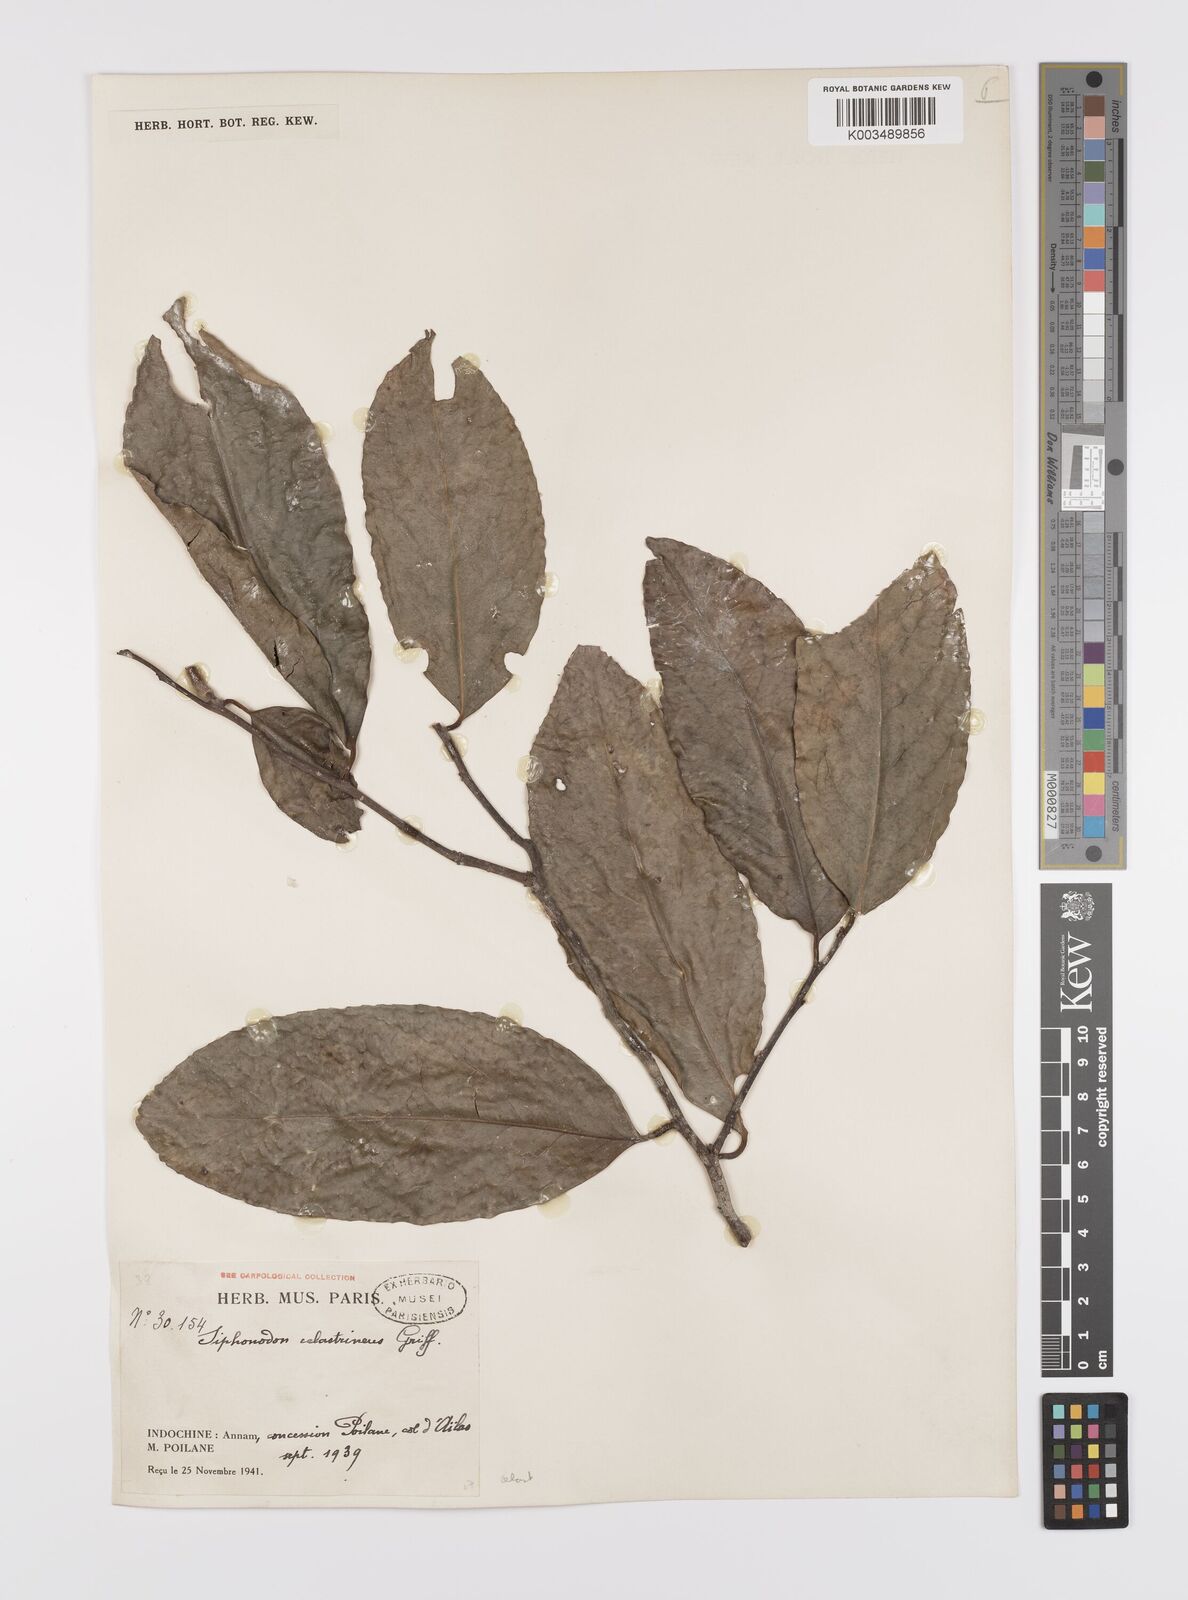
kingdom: Plantae
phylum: Tracheophyta
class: Magnoliopsida
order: Celastrales
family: Celastraceae
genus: Siphonodon
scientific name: Siphonodon celastrineus
